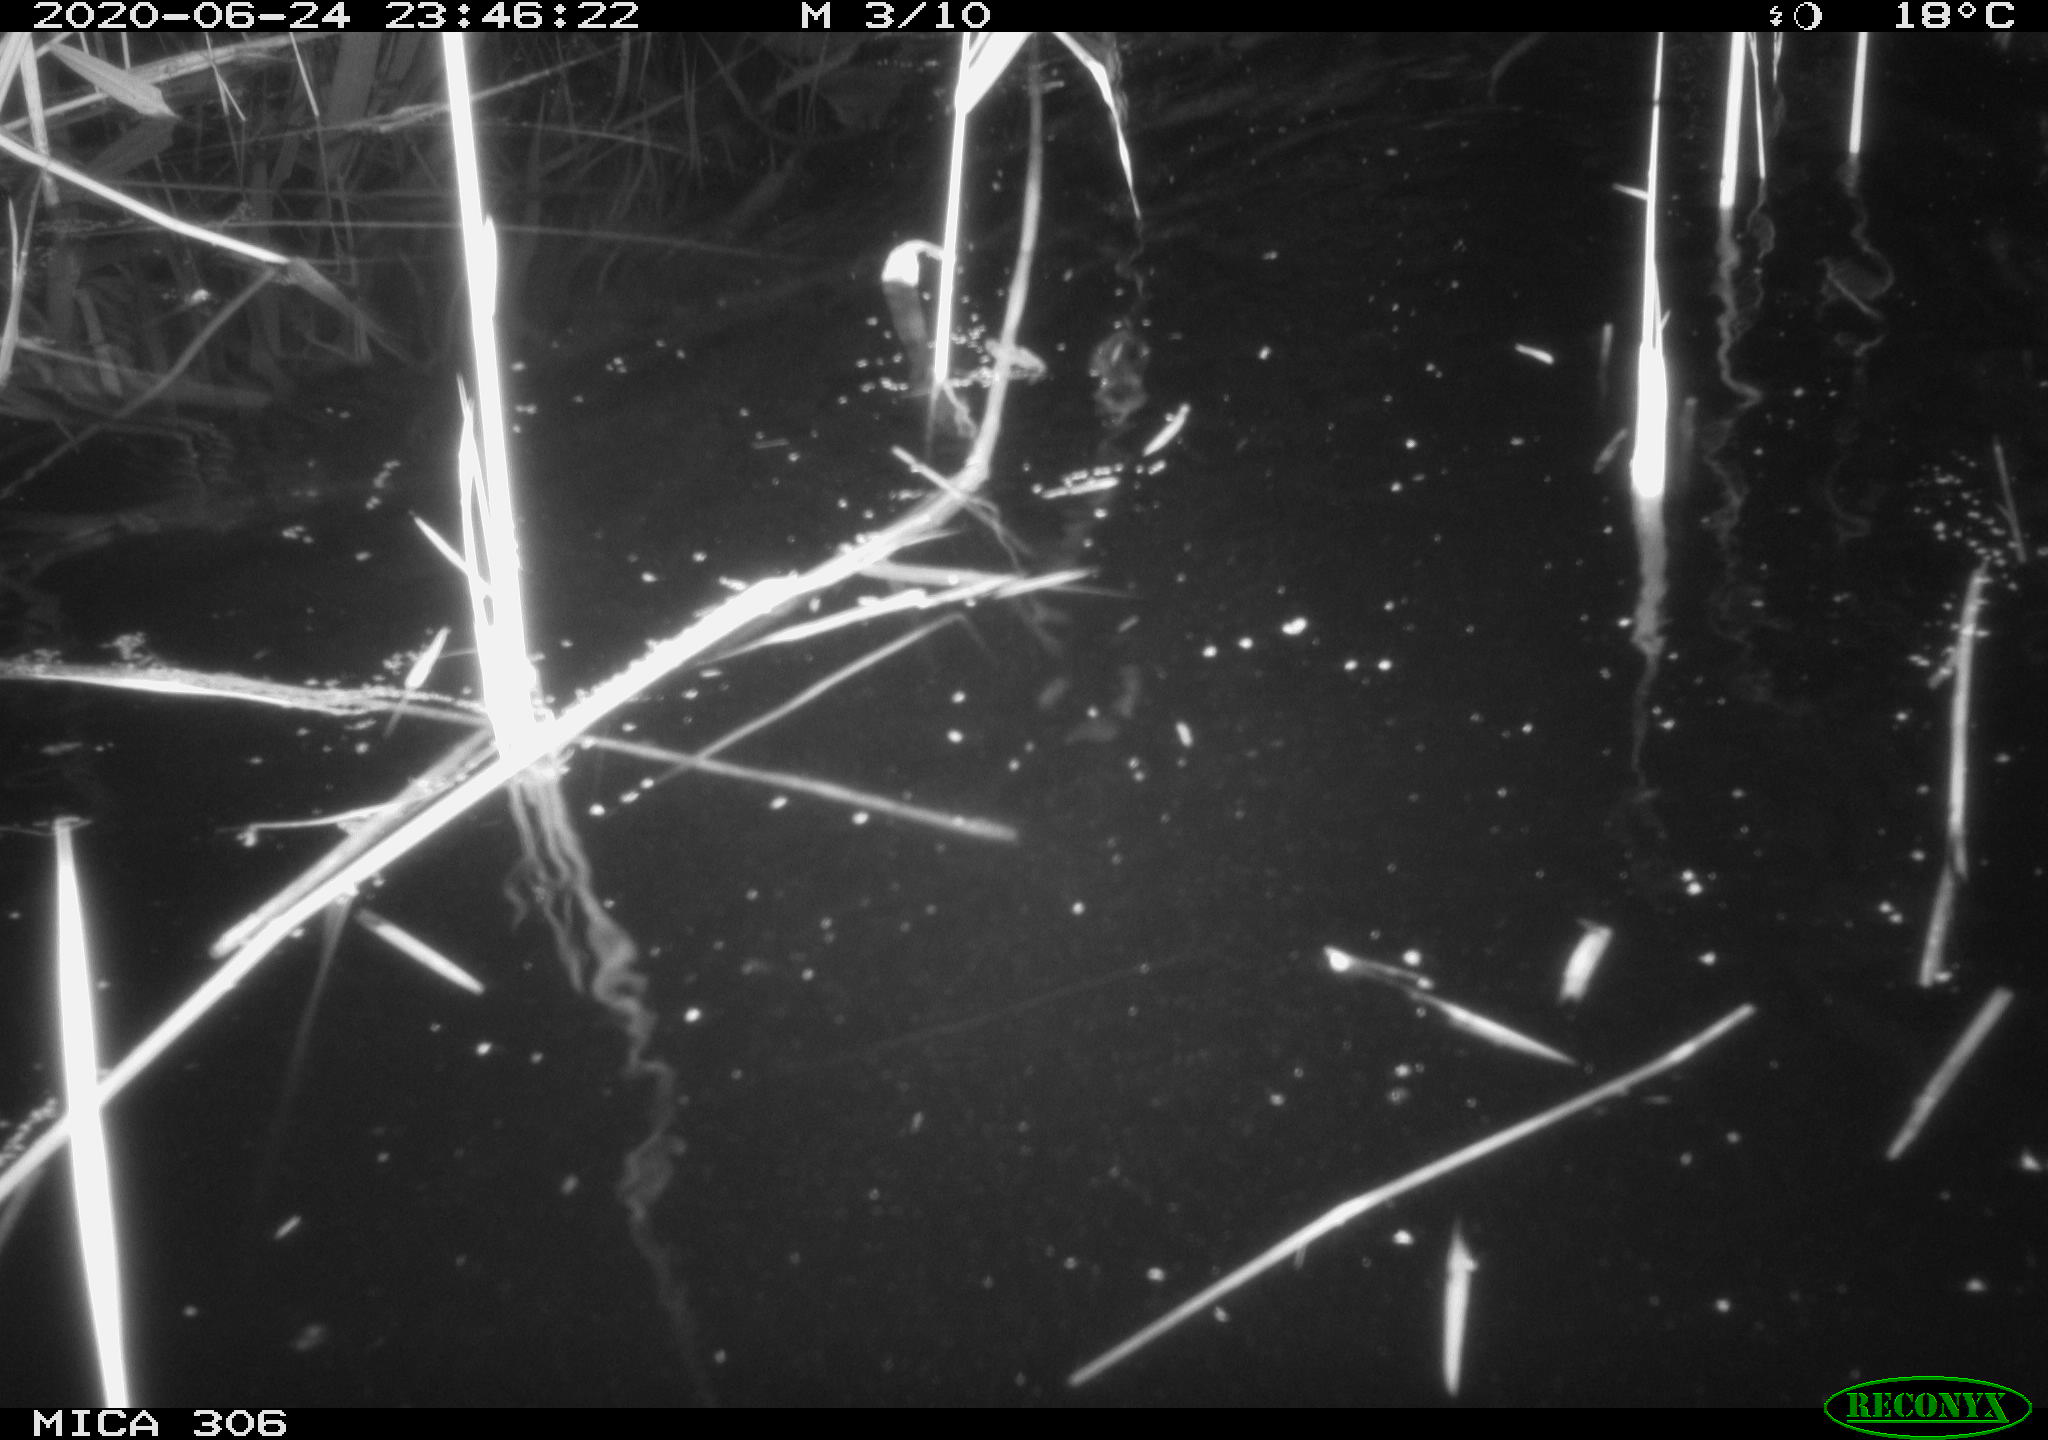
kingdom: Animalia
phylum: Chordata
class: Mammalia
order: Rodentia
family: Muridae
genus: Rattus
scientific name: Rattus norvegicus
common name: Brown rat
